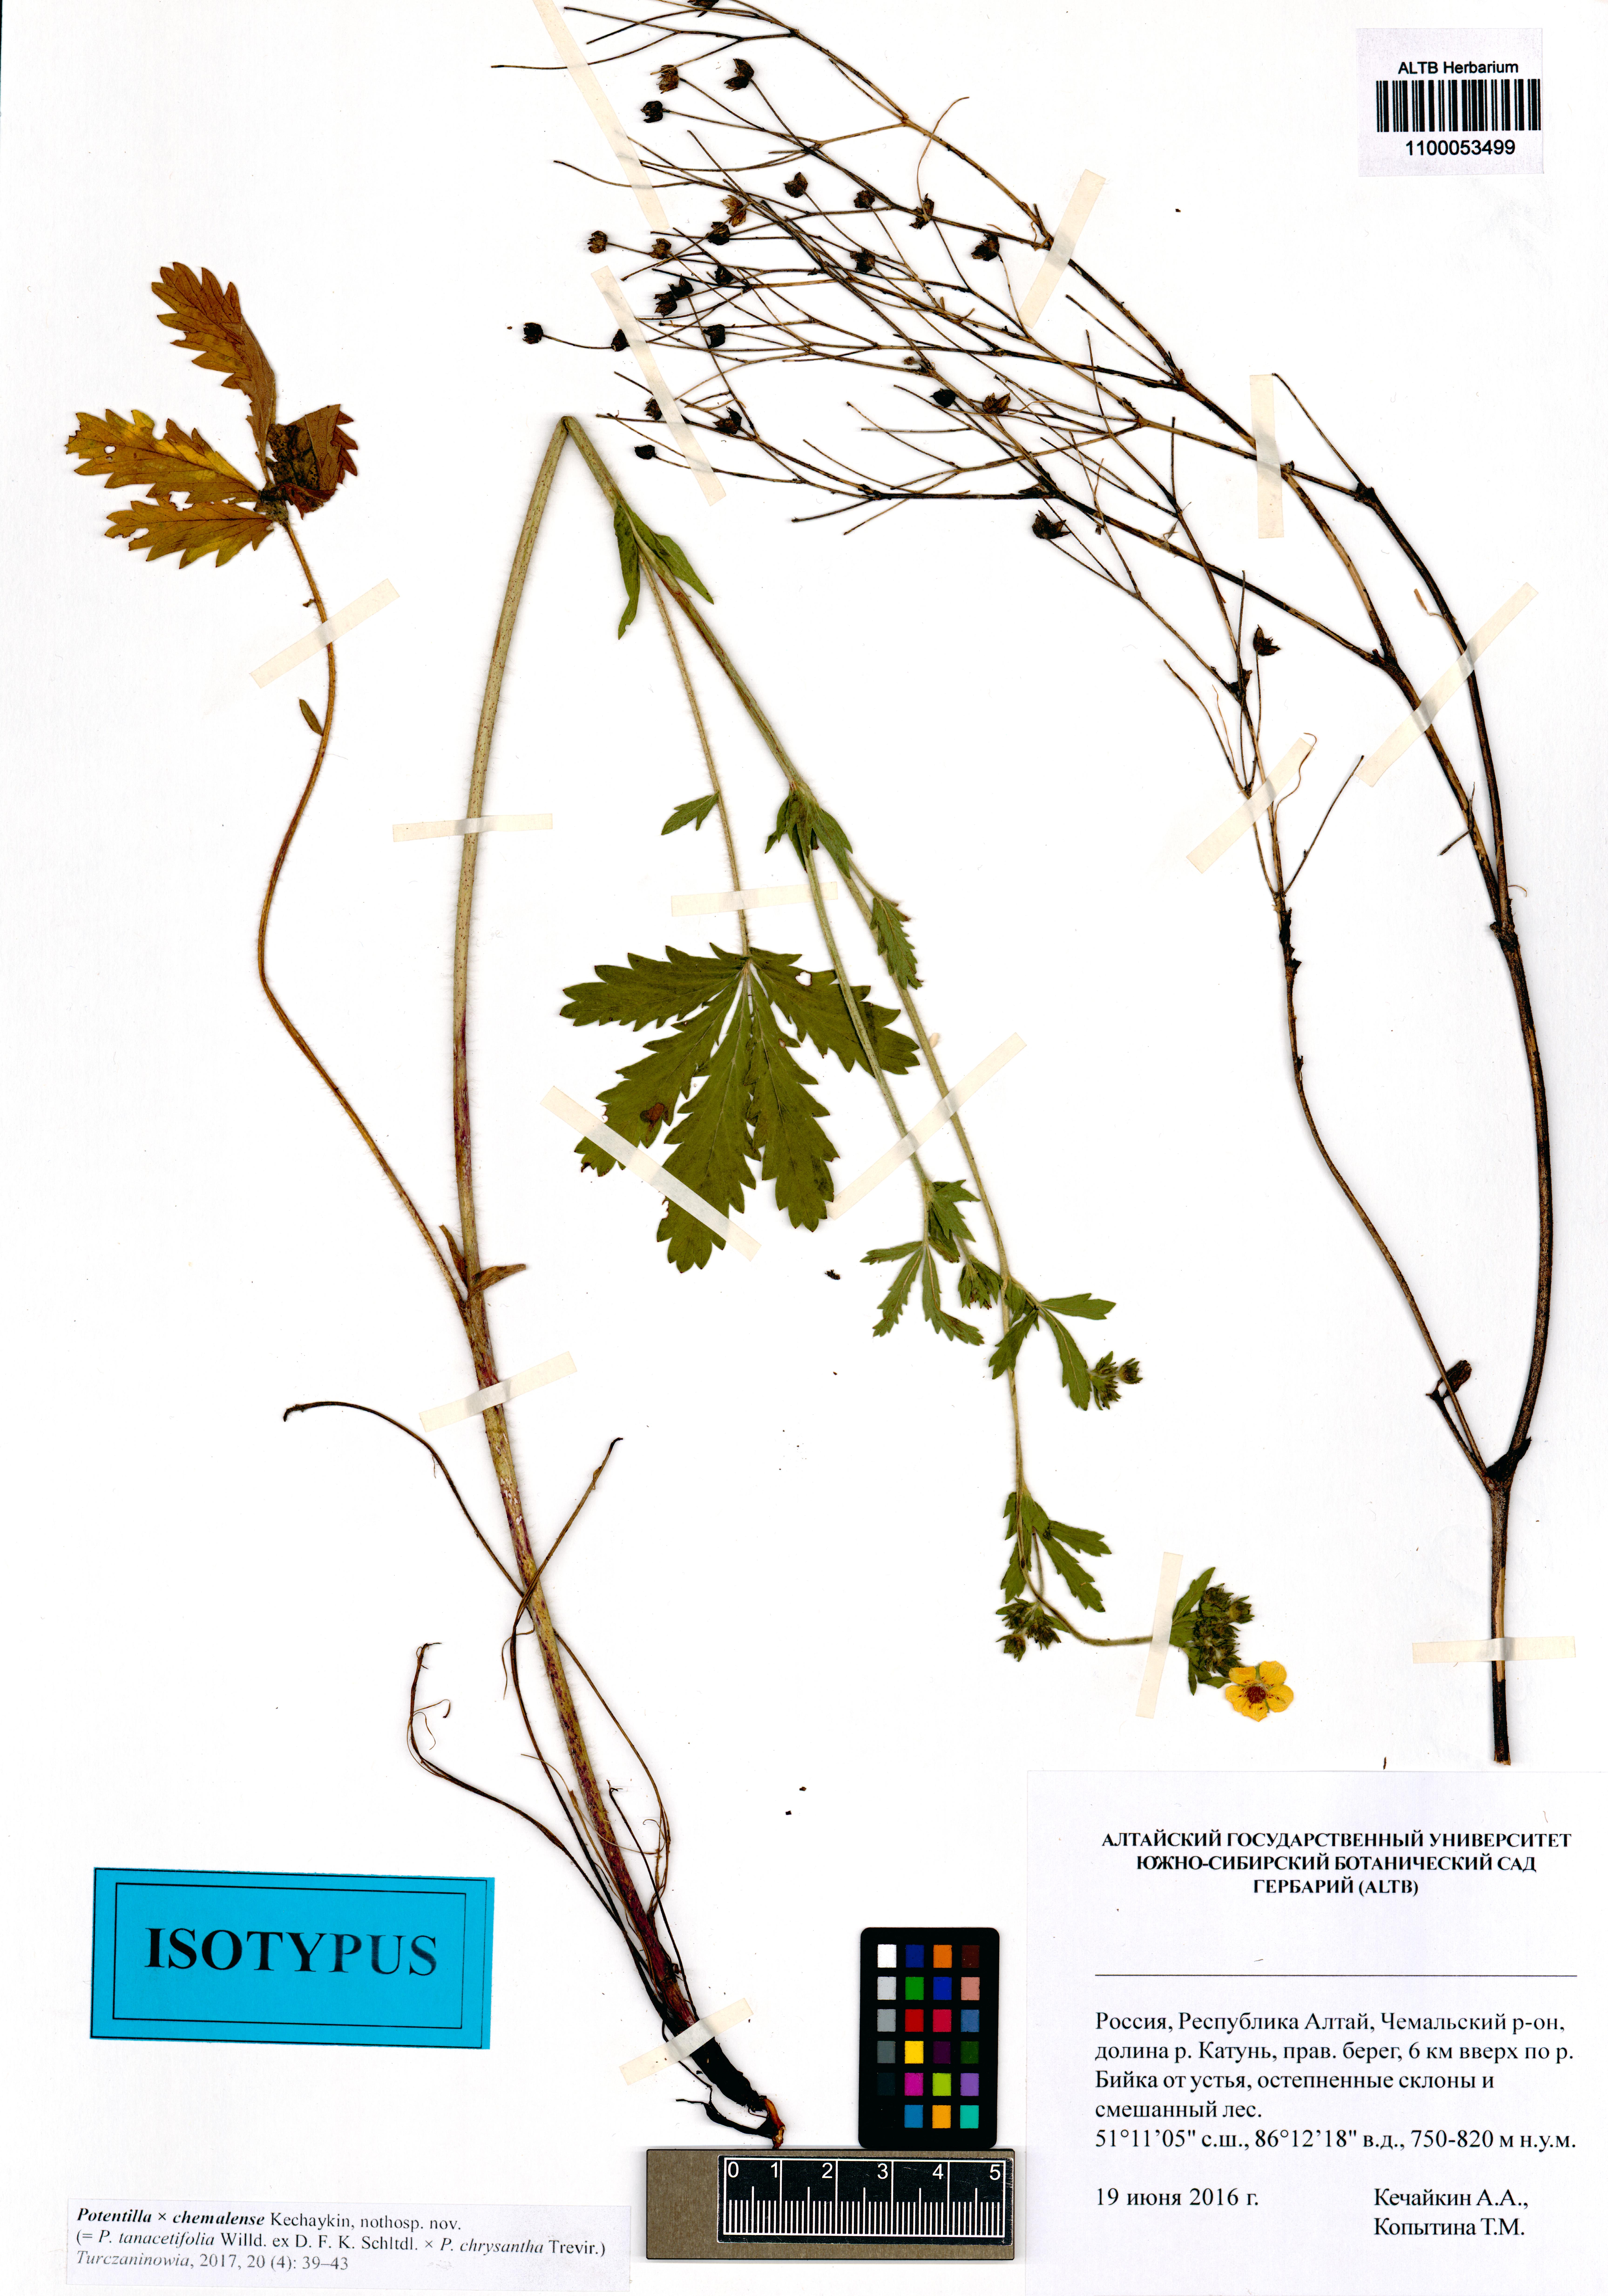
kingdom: Plantae
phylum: Tracheophyta
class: Magnoliopsida
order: Rosales
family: Rosaceae
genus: Potentilla
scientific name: Potentilla chemalensis
